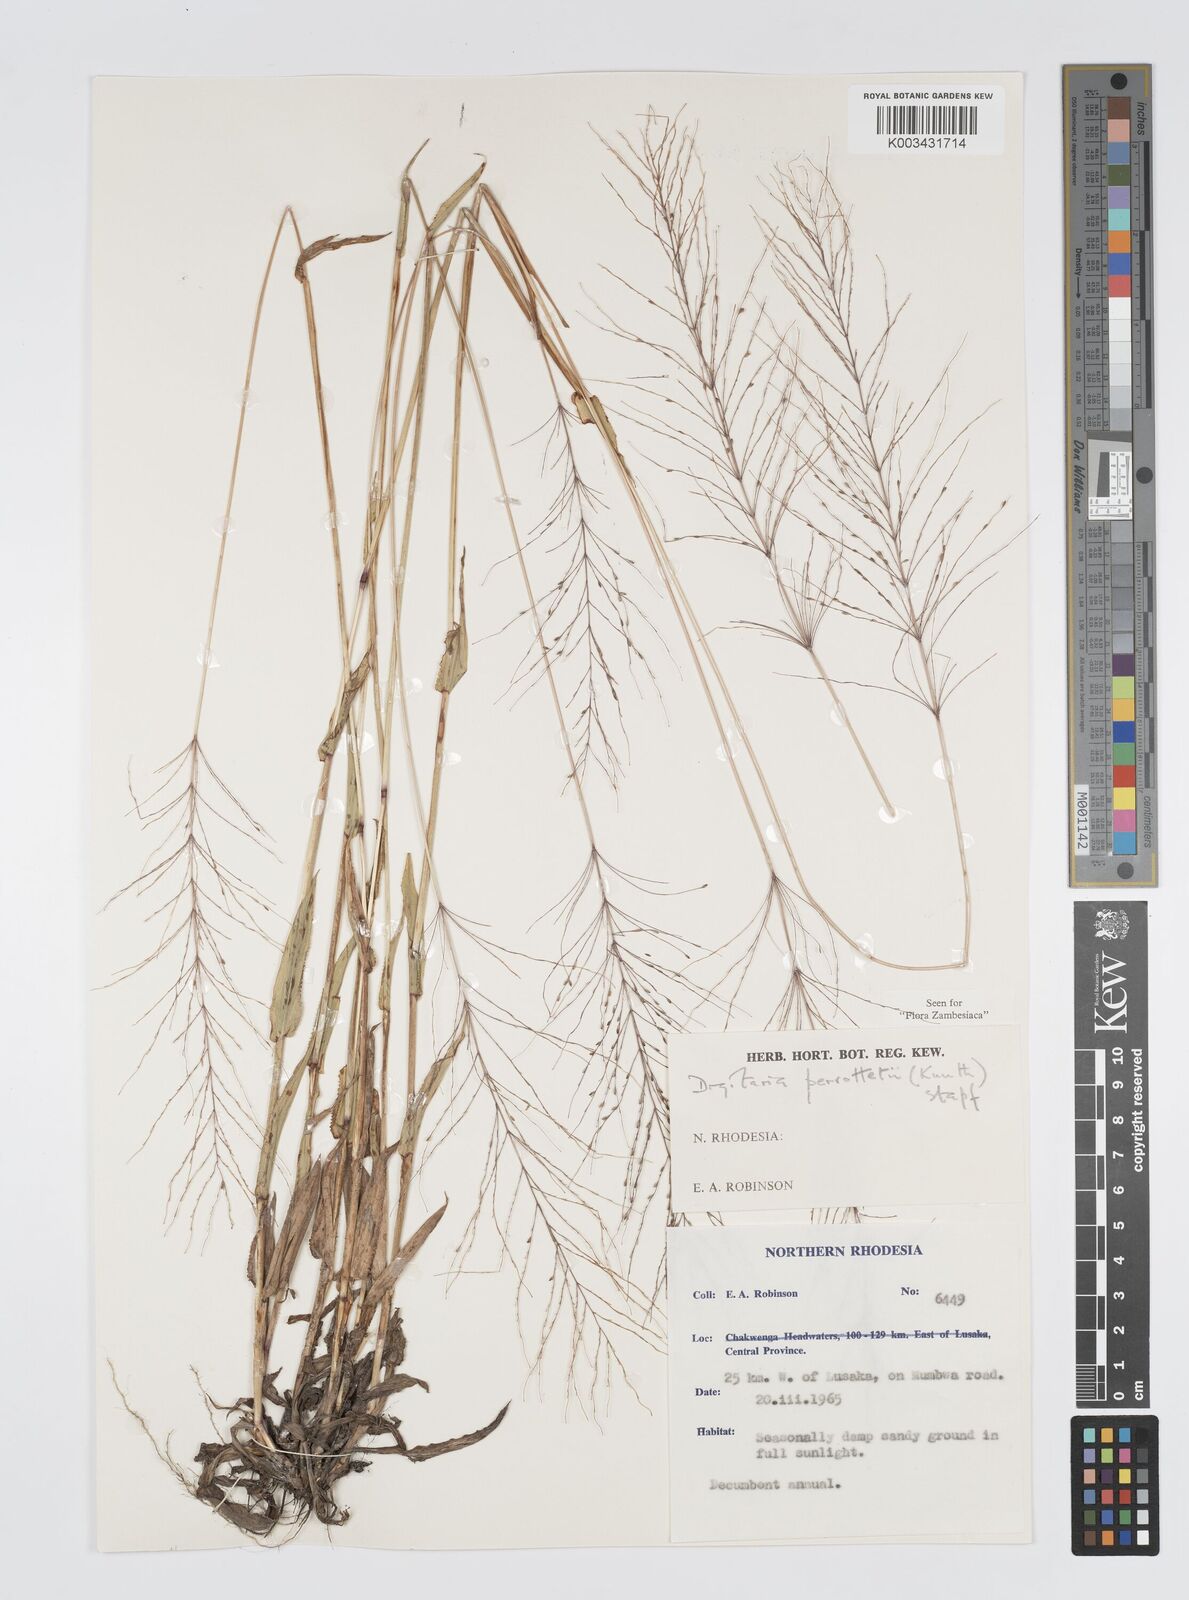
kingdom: Plantae
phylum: Tracheophyta
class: Liliopsida
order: Poales
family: Poaceae
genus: Digitaria
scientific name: Digitaria perrottetii
